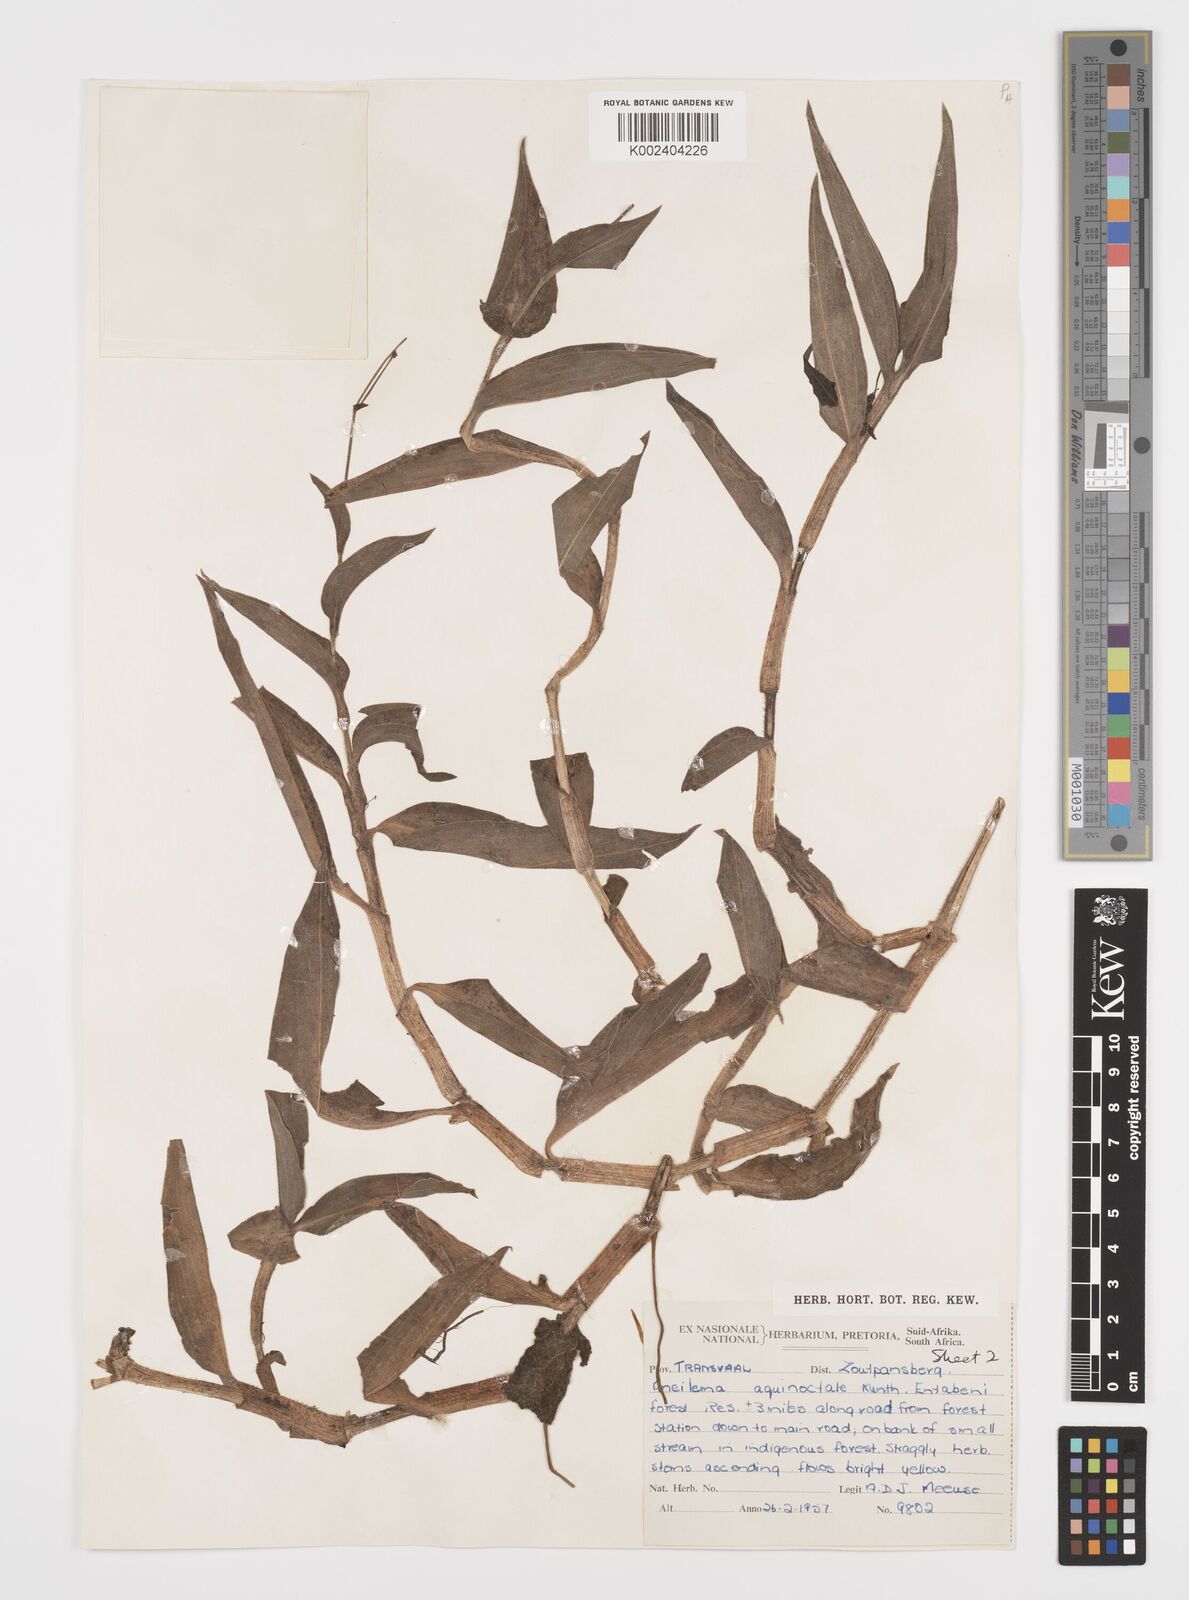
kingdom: Plantae
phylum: Tracheophyta
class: Liliopsida
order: Commelinales
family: Commelinaceae
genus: Aneilema
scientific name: Aneilema aequinoctiale
